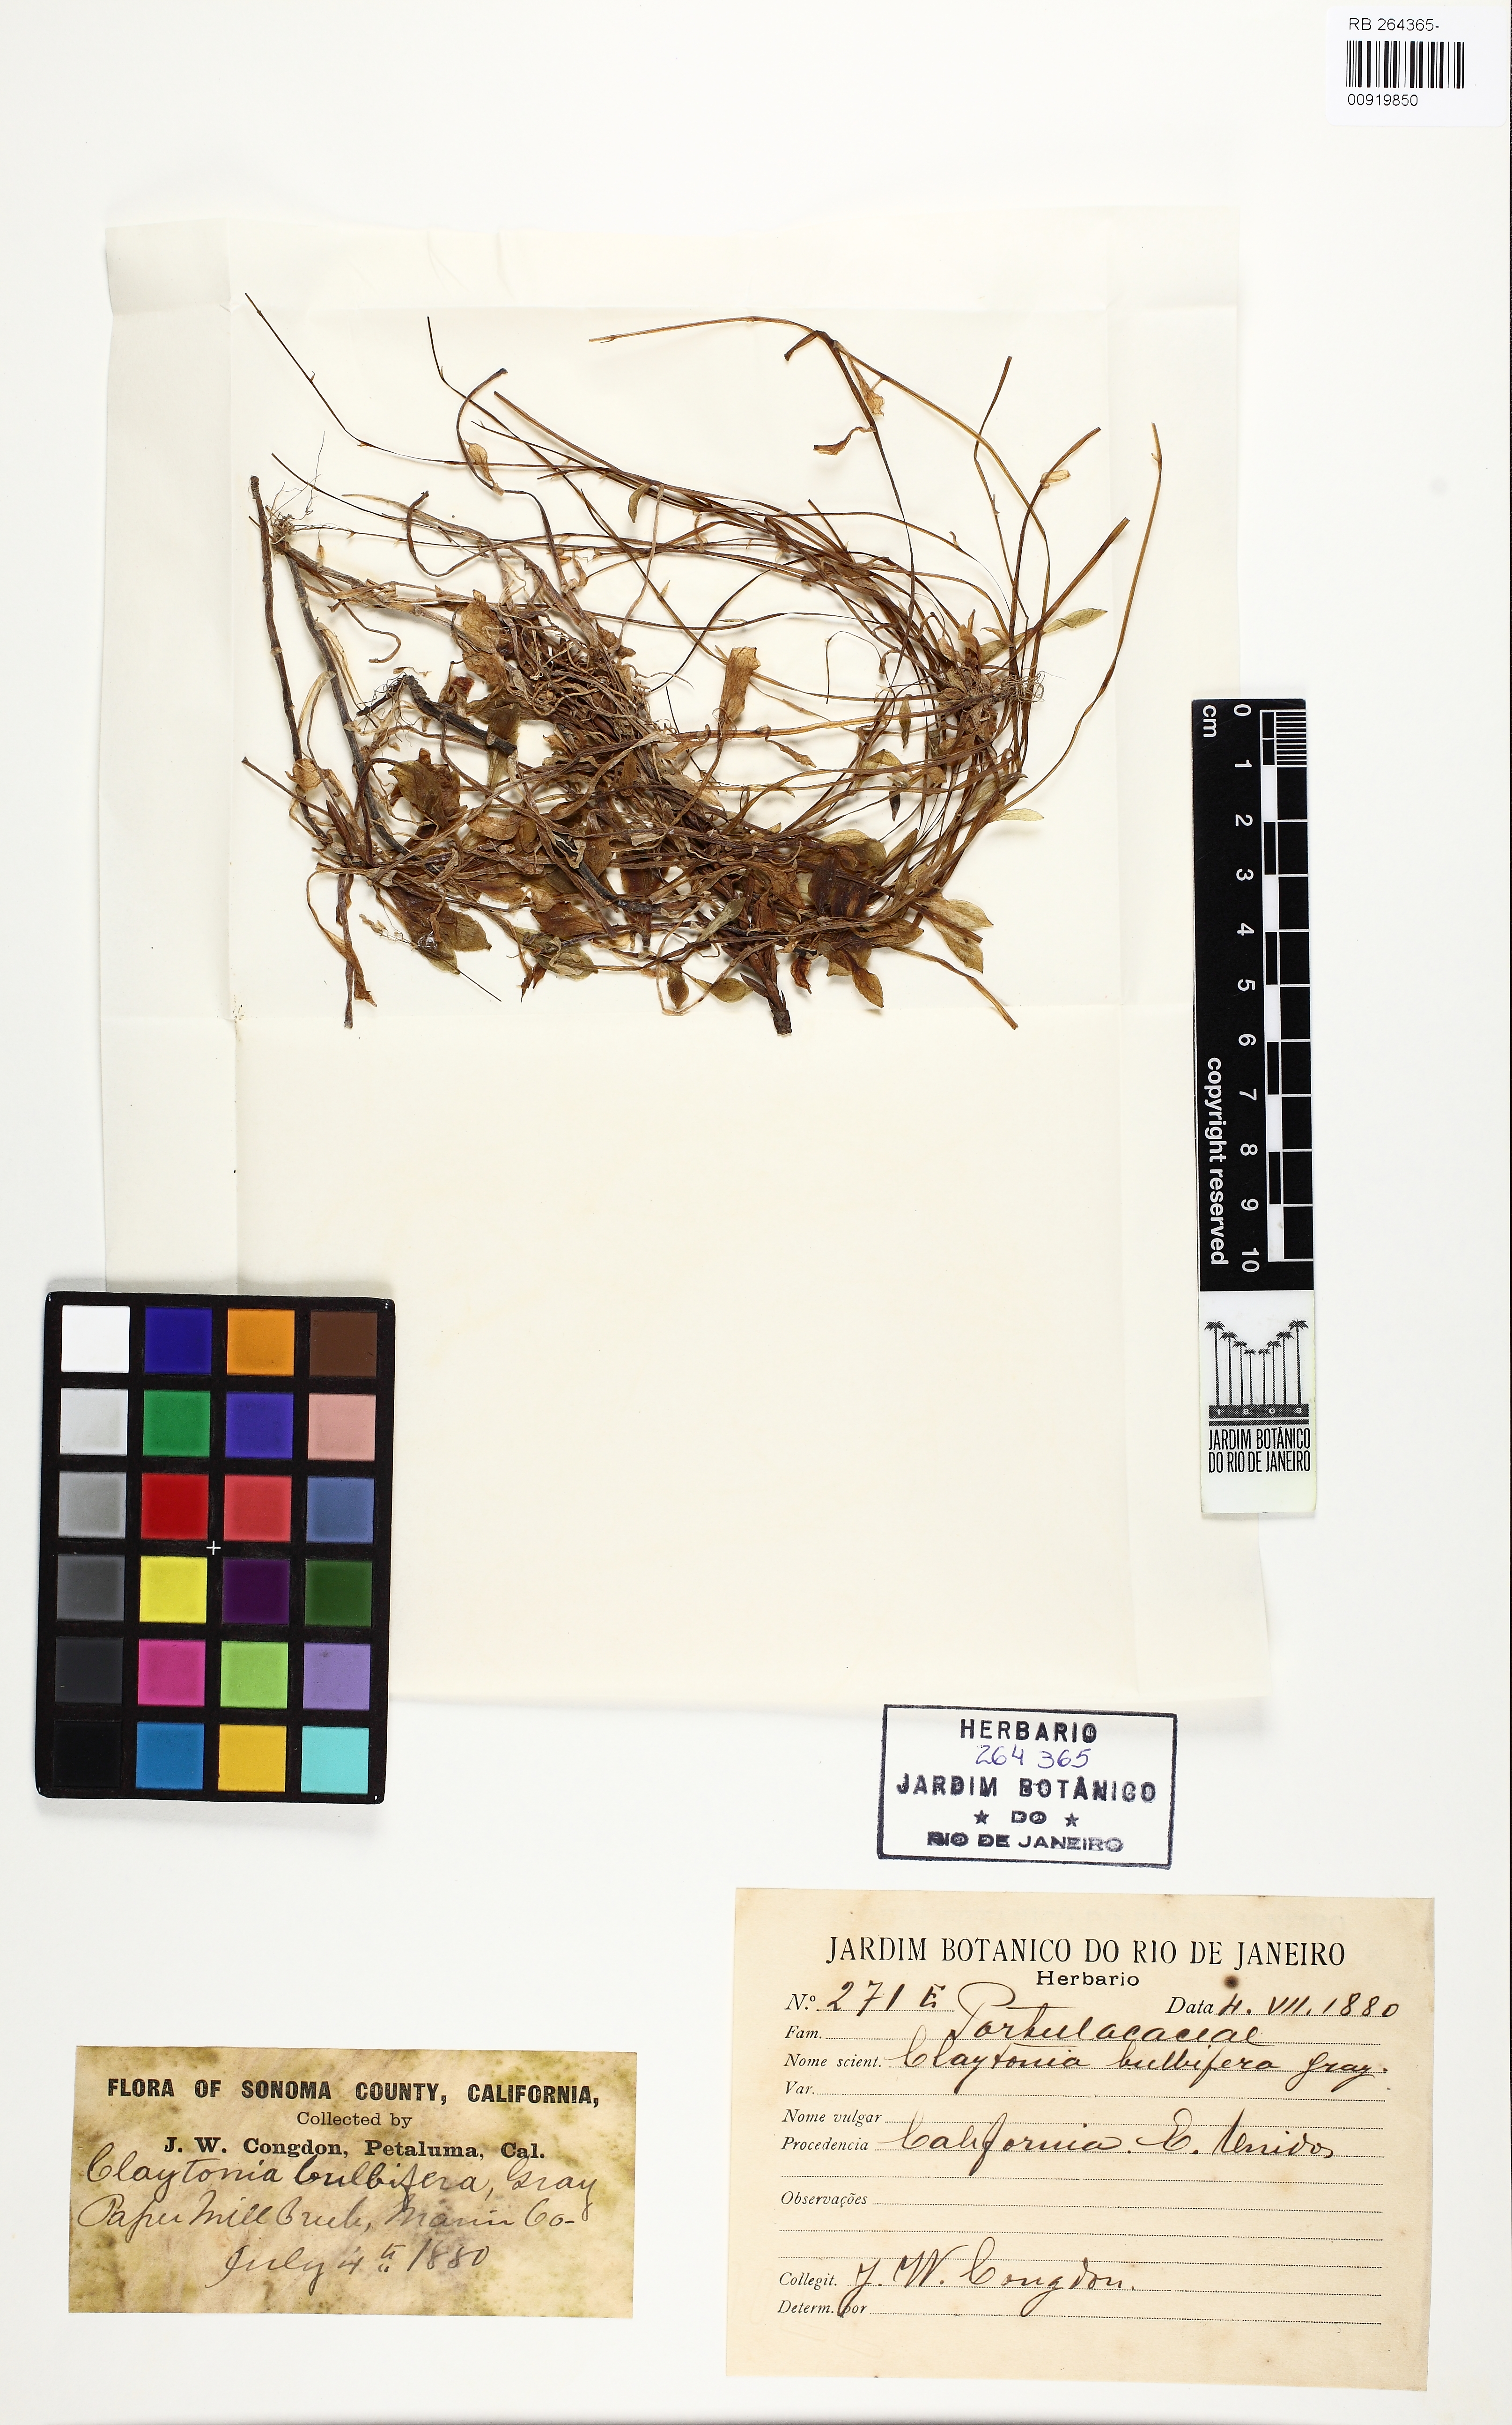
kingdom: Plantae
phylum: Tracheophyta
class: Magnoliopsida
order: Caryophyllales
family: Montiaceae
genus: Claytonia
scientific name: Claytonia sibirica
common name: Pink purslane
